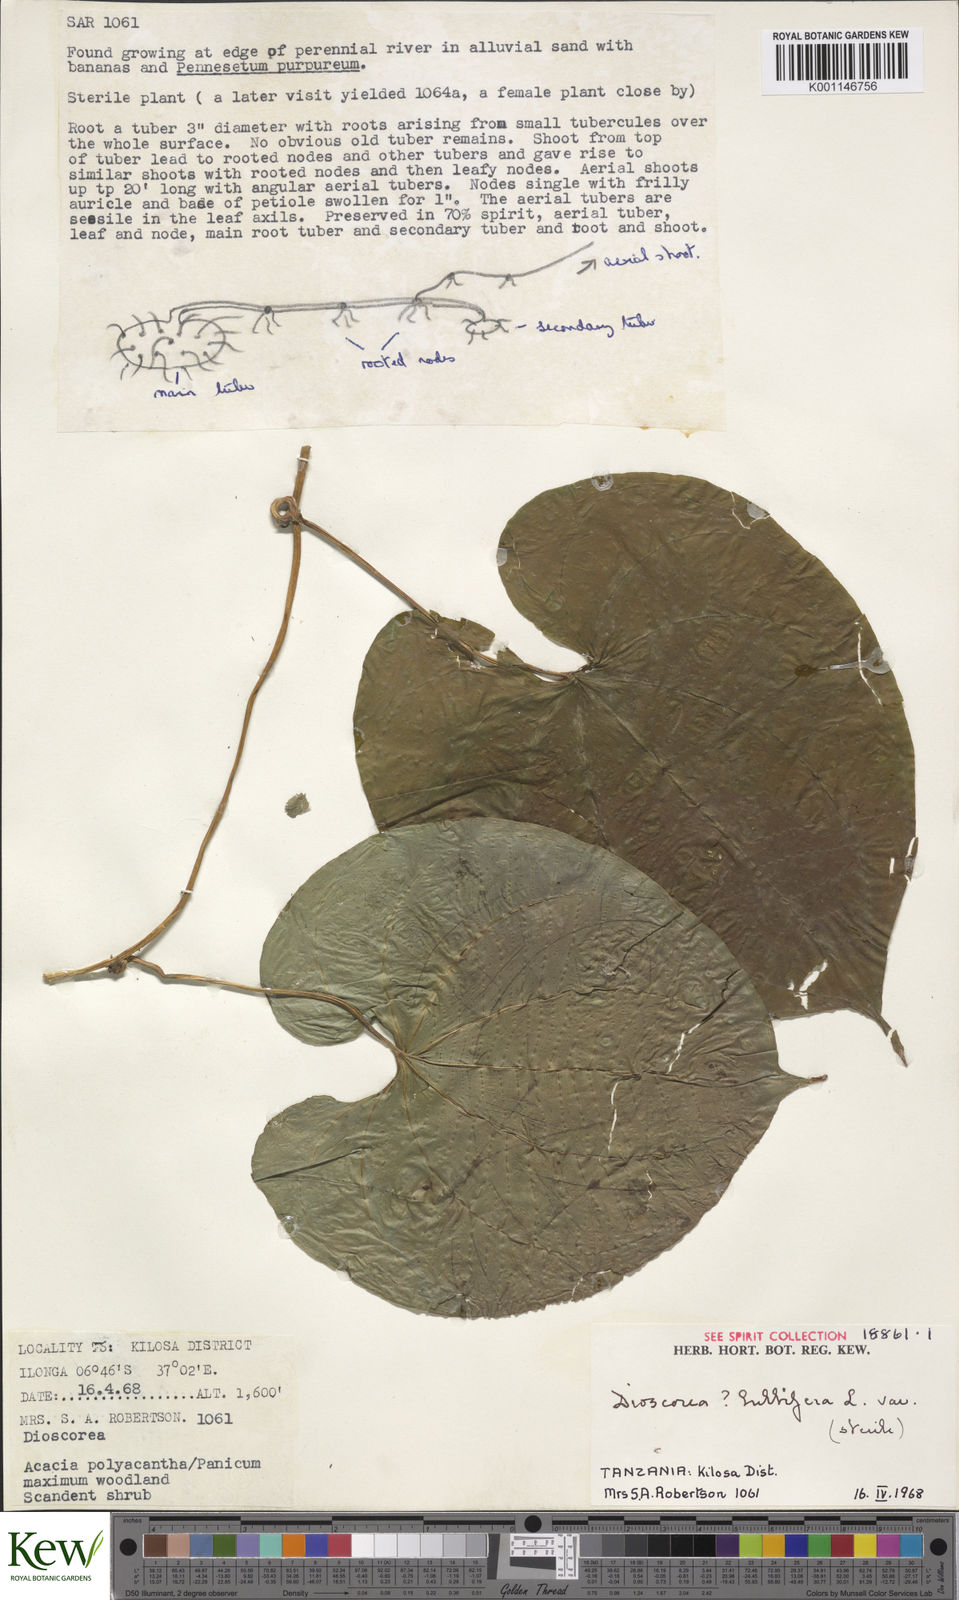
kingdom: Plantae
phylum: Tracheophyta
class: Liliopsida
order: Dioscoreales
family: Dioscoreaceae
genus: Dioscorea
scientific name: Dioscorea bulbifera
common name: Air yam
